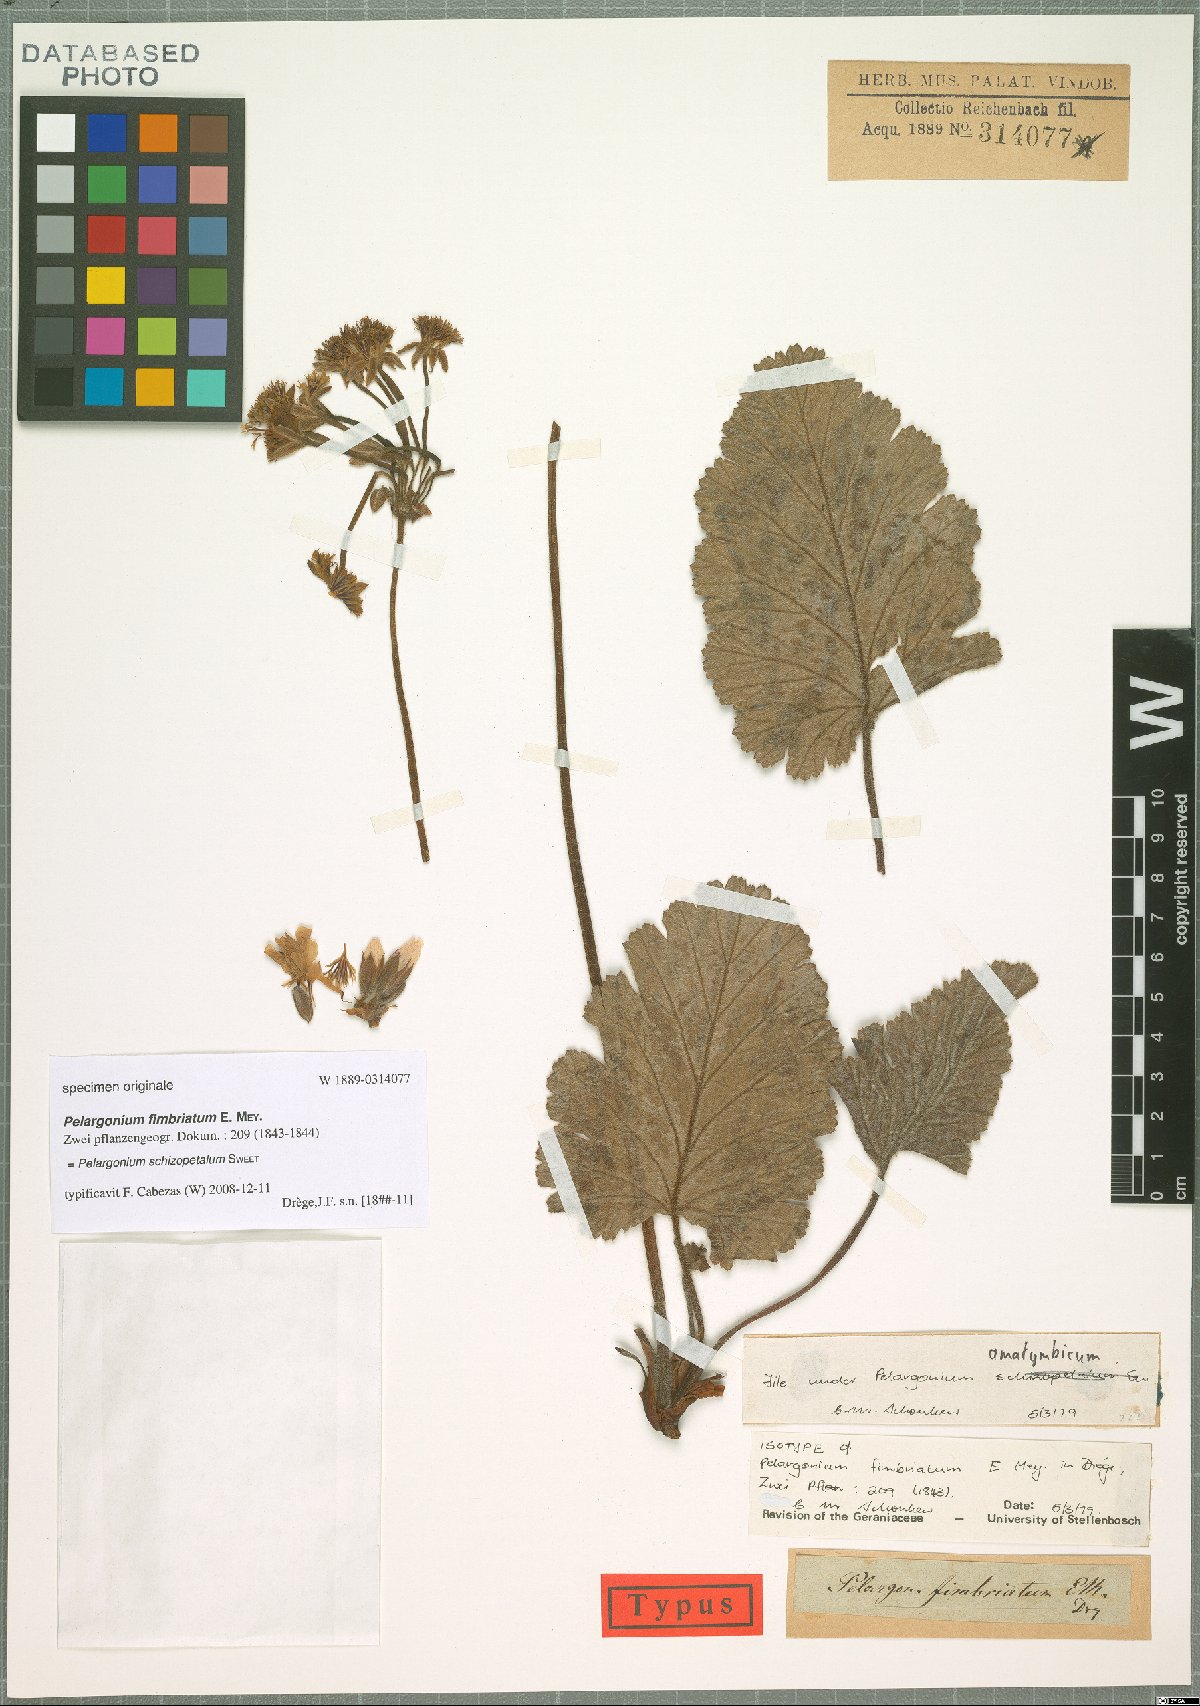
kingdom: Plantae
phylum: Tracheophyta
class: Magnoliopsida
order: Geraniales
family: Geraniaceae
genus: Pelargonium
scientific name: Pelargonium schizopetalum
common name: Divided-petal pelargonium
